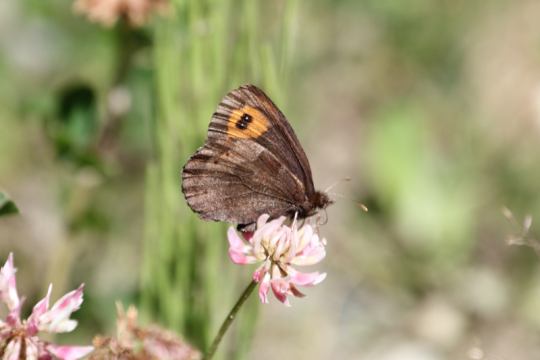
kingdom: Animalia
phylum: Arthropoda
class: Insecta
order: Lepidoptera
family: Nymphalidae
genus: Erebia
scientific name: Erebia vidleri
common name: Vidler's Alpine
